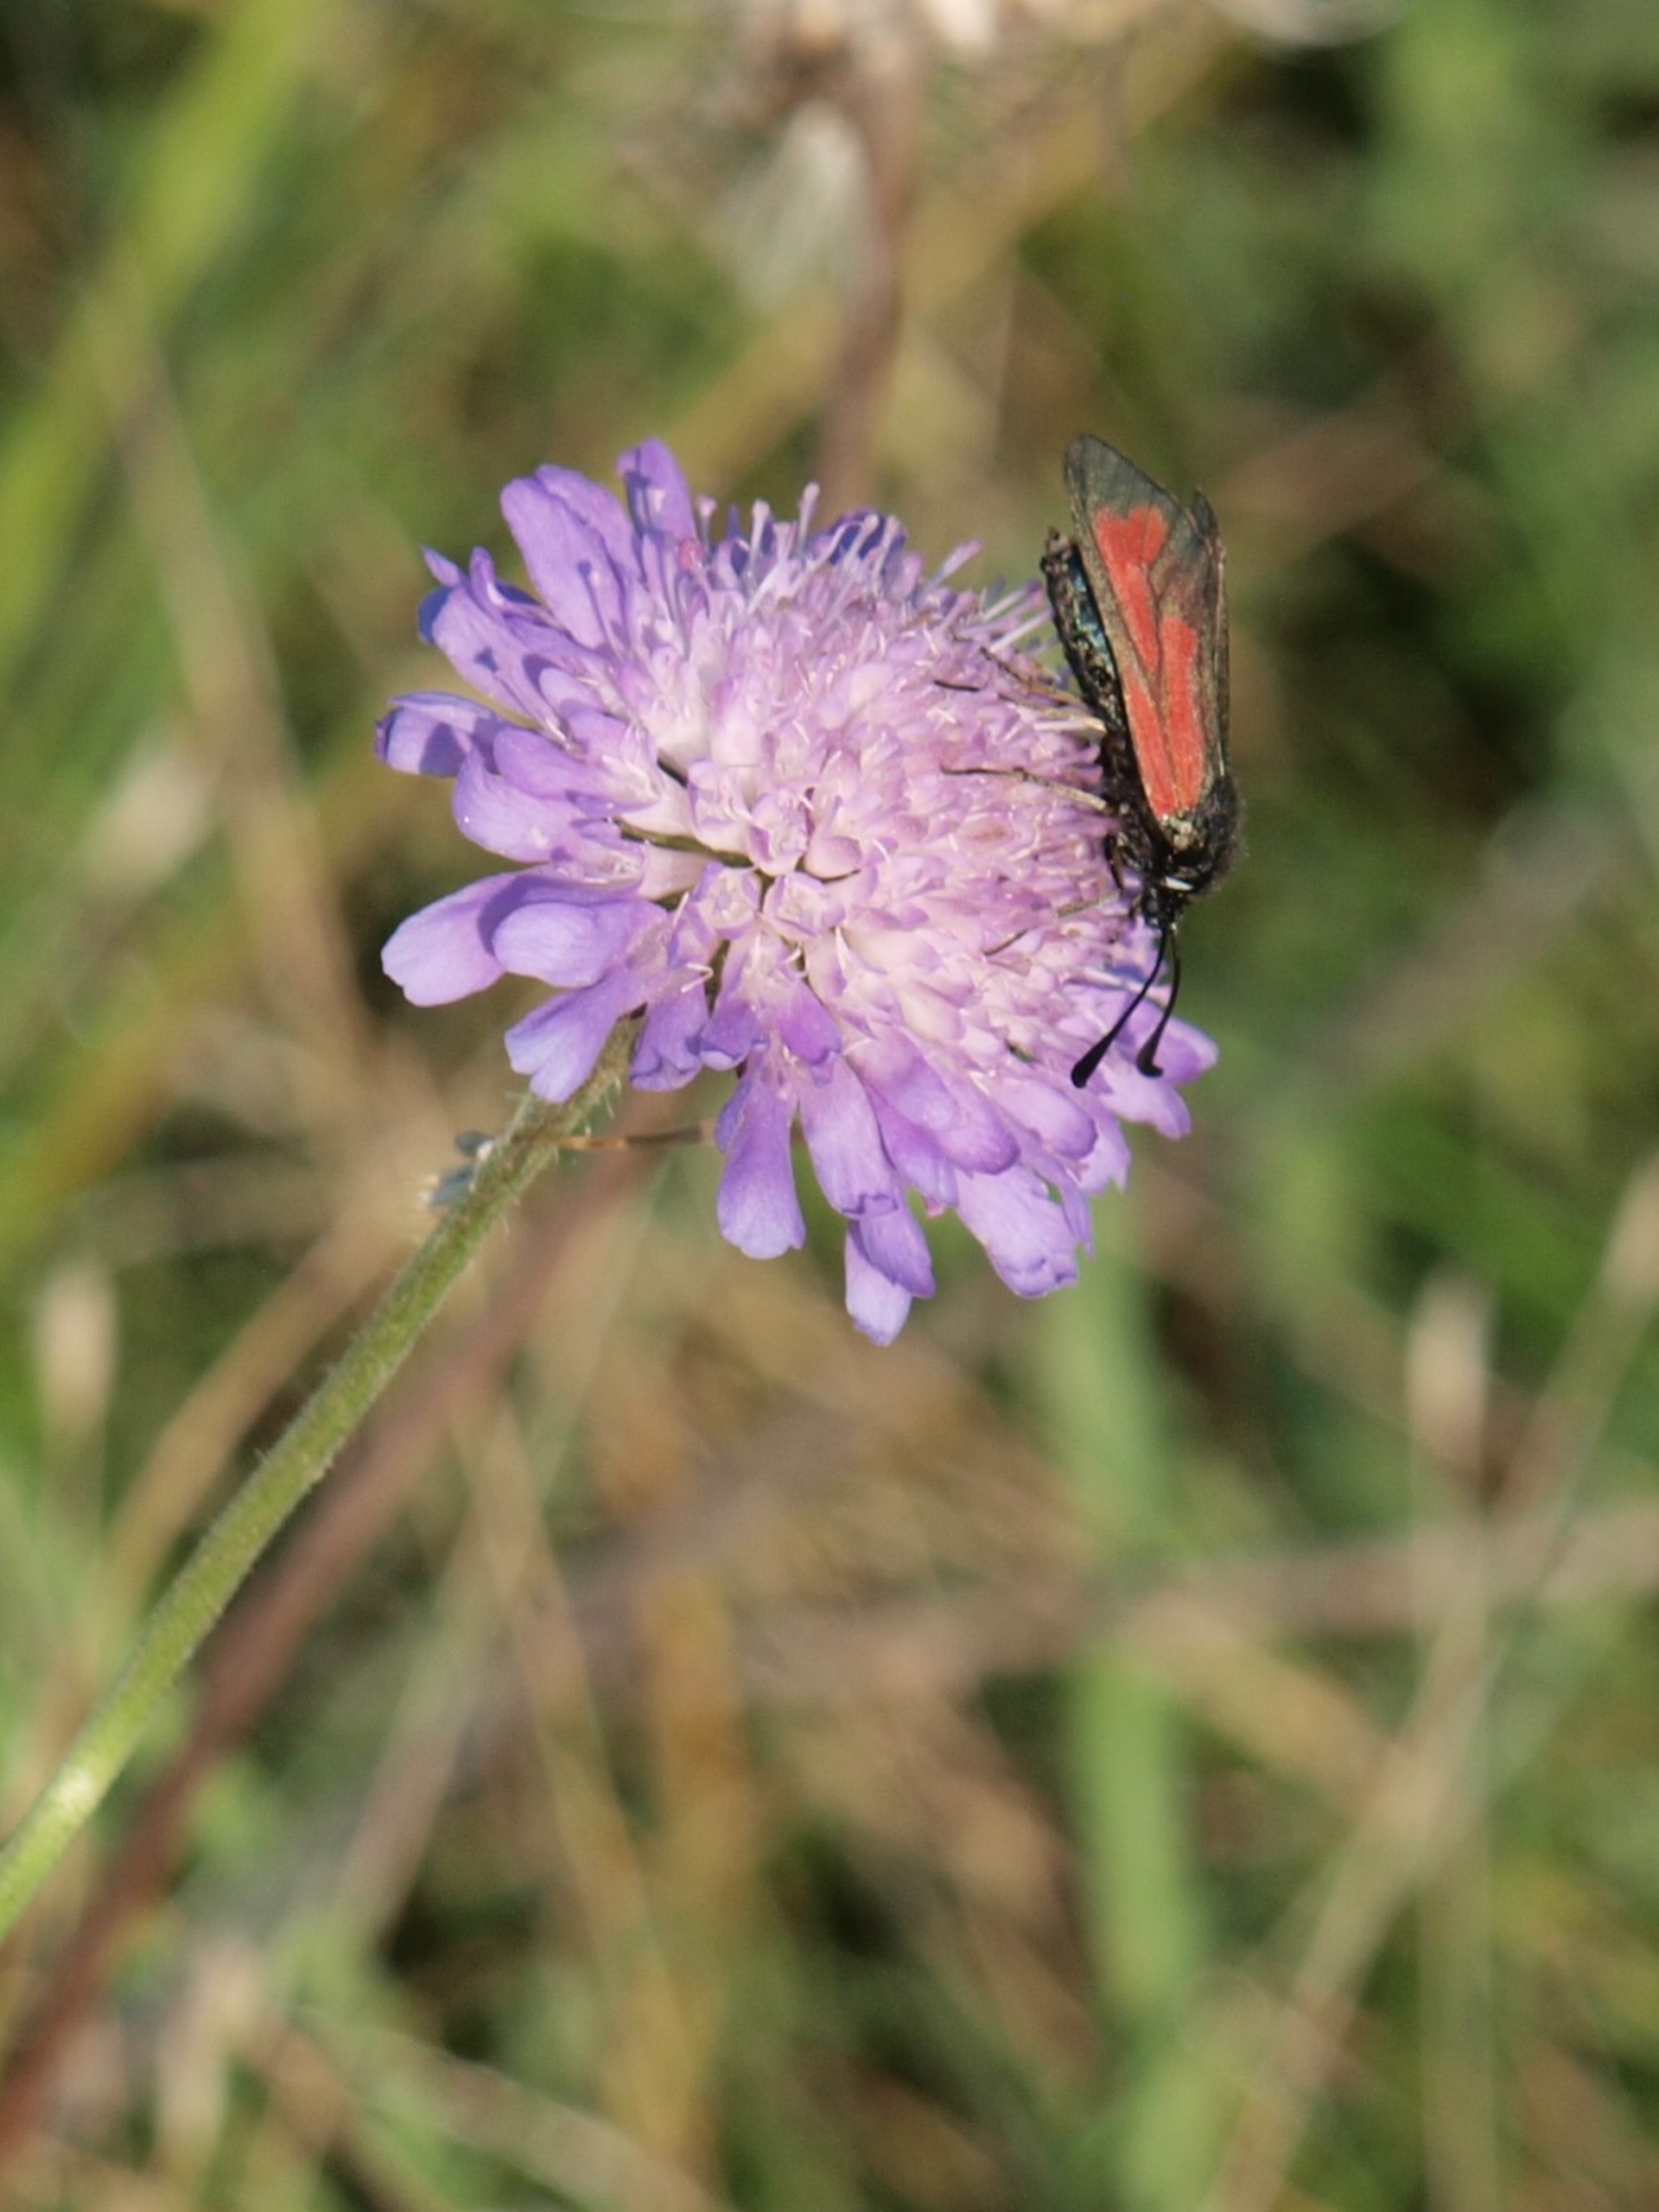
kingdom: Animalia
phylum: Arthropoda
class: Insecta
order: Lepidoptera
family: Zygaenidae
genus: Zygaena
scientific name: Zygaena minos
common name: Pimpernelkøllesværmer
